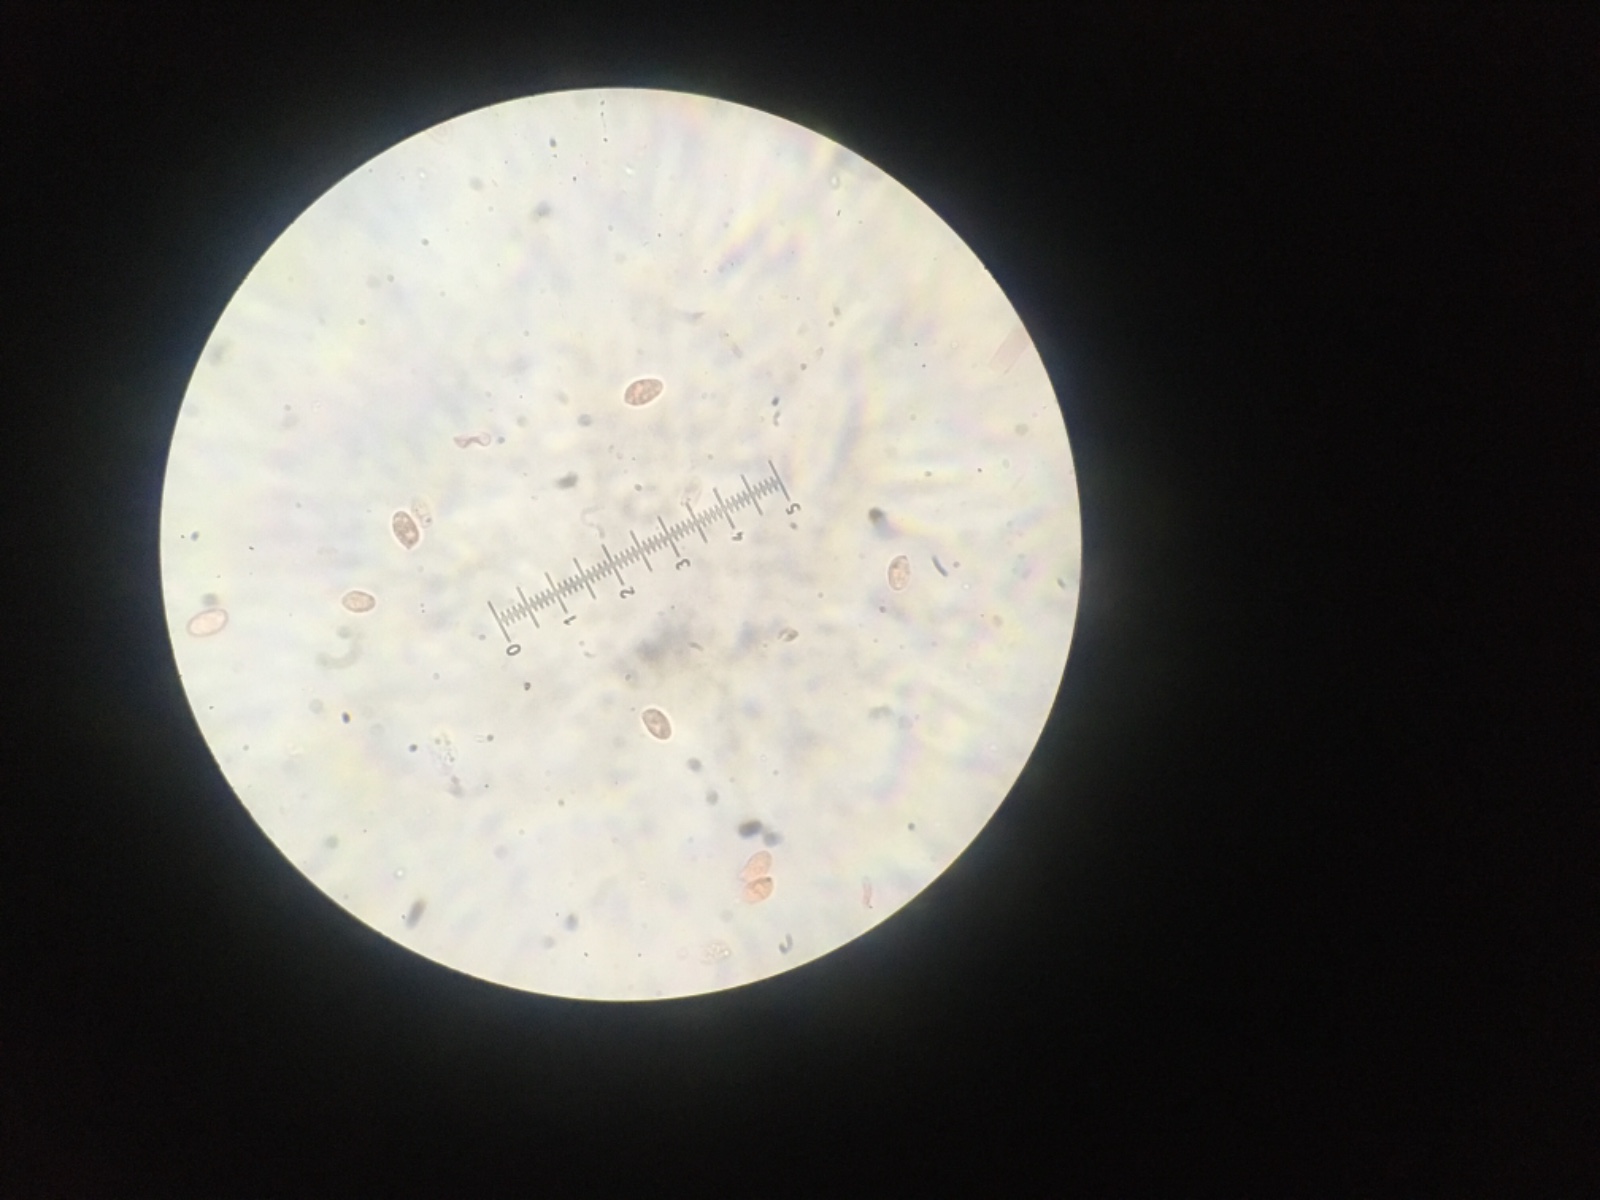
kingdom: Fungi
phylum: Basidiomycota
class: Agaricomycetes
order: Agaricales
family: Tricholomataceae
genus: Clitocybe
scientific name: Clitocybe metachroa
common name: grå tragthat
